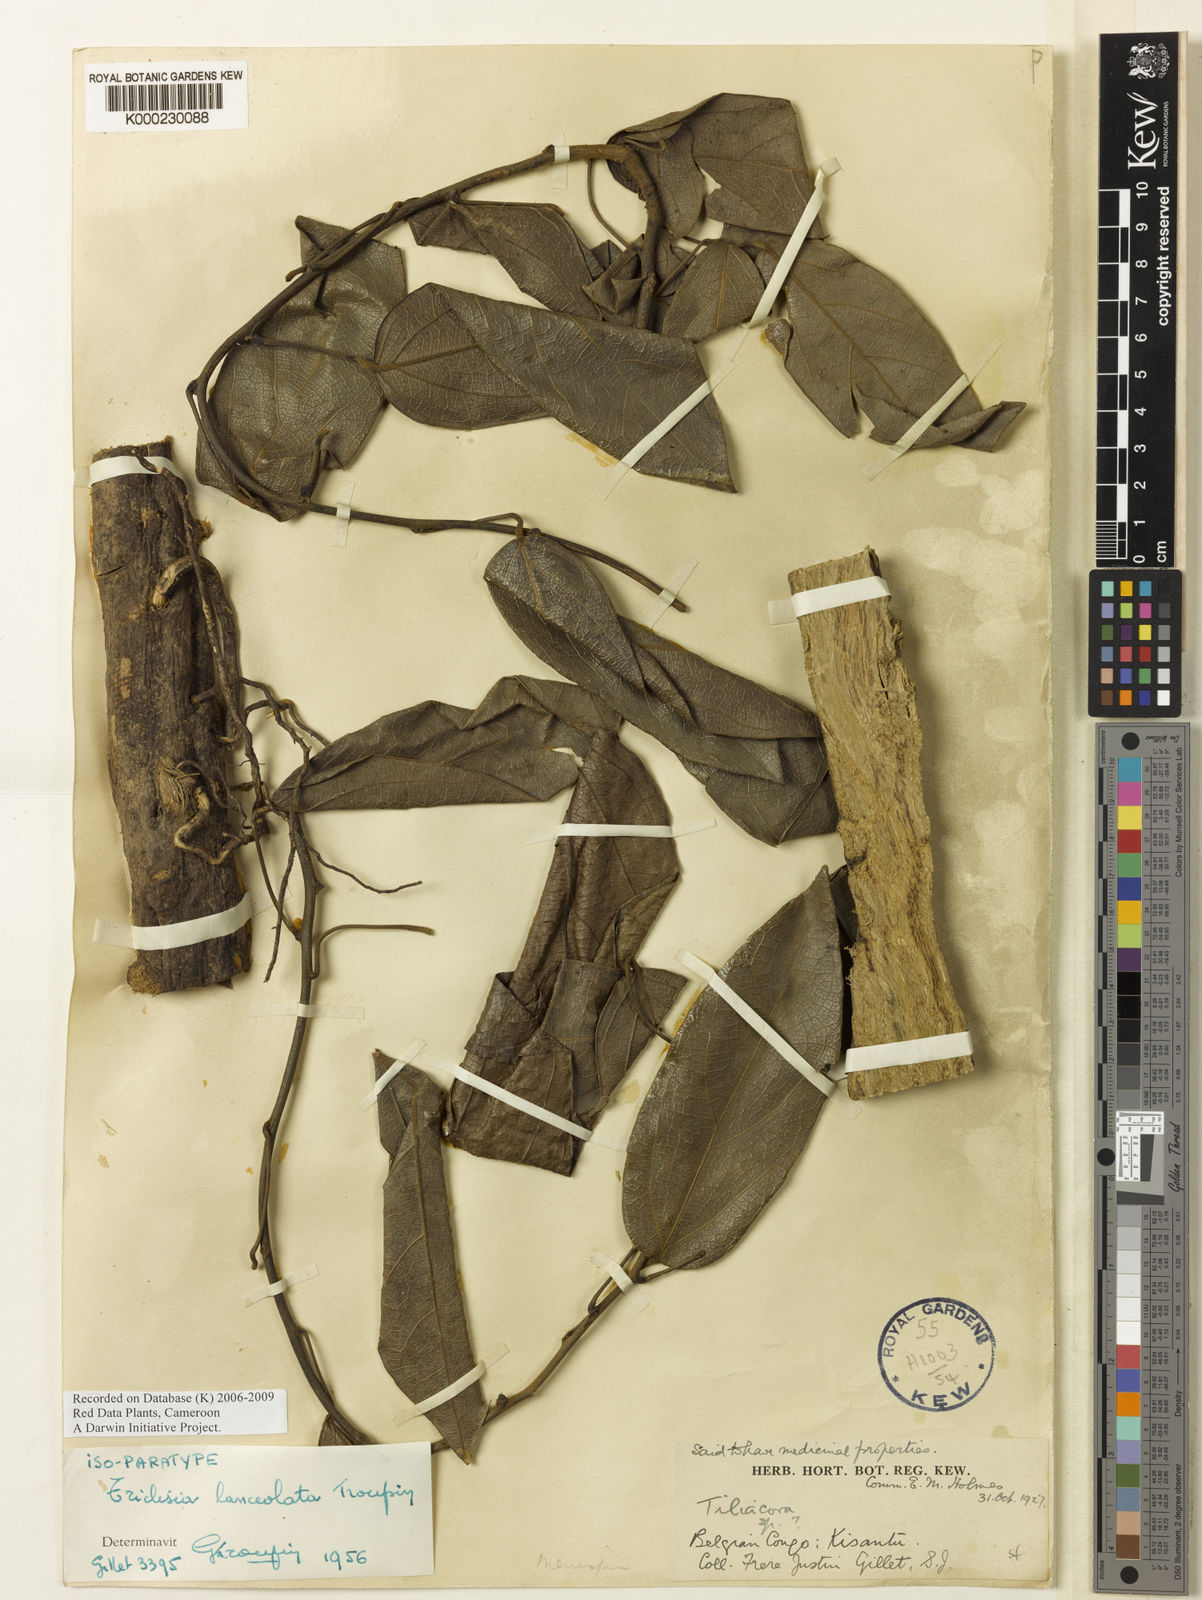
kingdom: Plantae
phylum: Tracheophyta
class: Magnoliopsida
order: Ranunculales
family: Menispermaceae
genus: Triclisia
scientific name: Triclisia lanceolata
